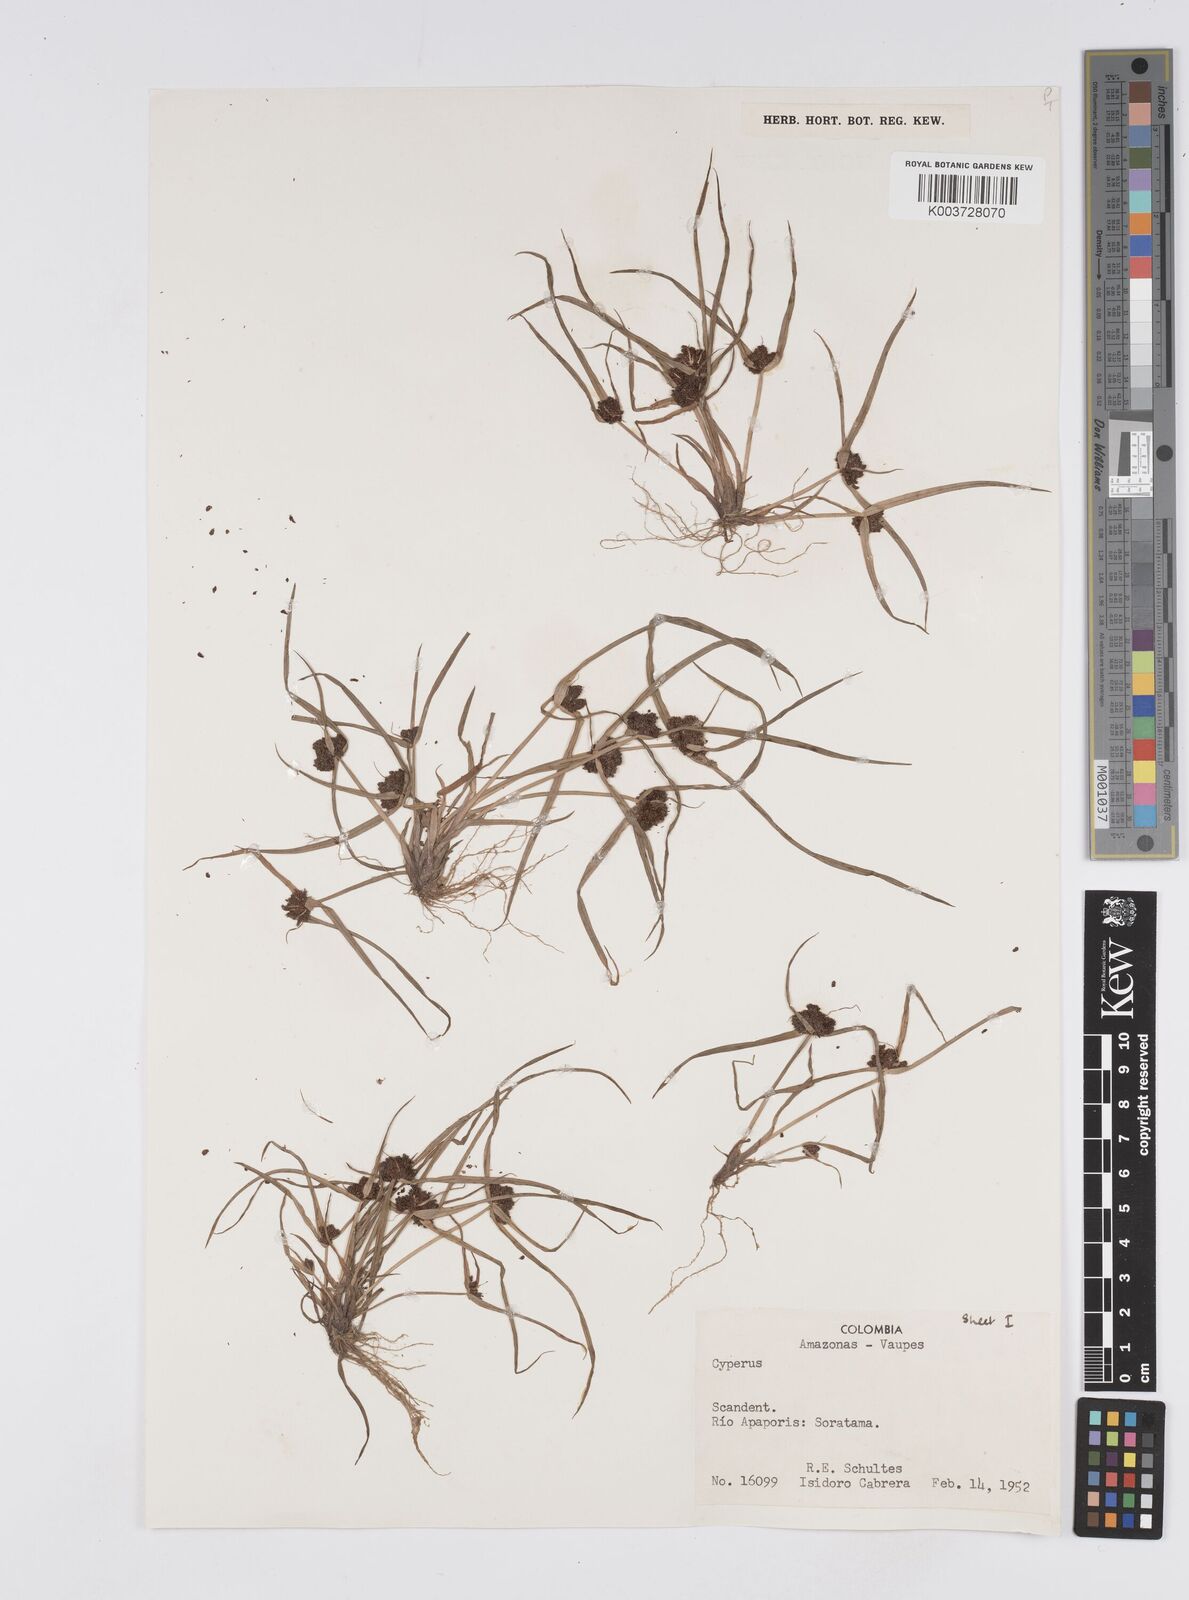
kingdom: Plantae
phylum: Tracheophyta
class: Liliopsida
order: Poales
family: Cyperaceae
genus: Cyperus
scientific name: Cyperus humilis
